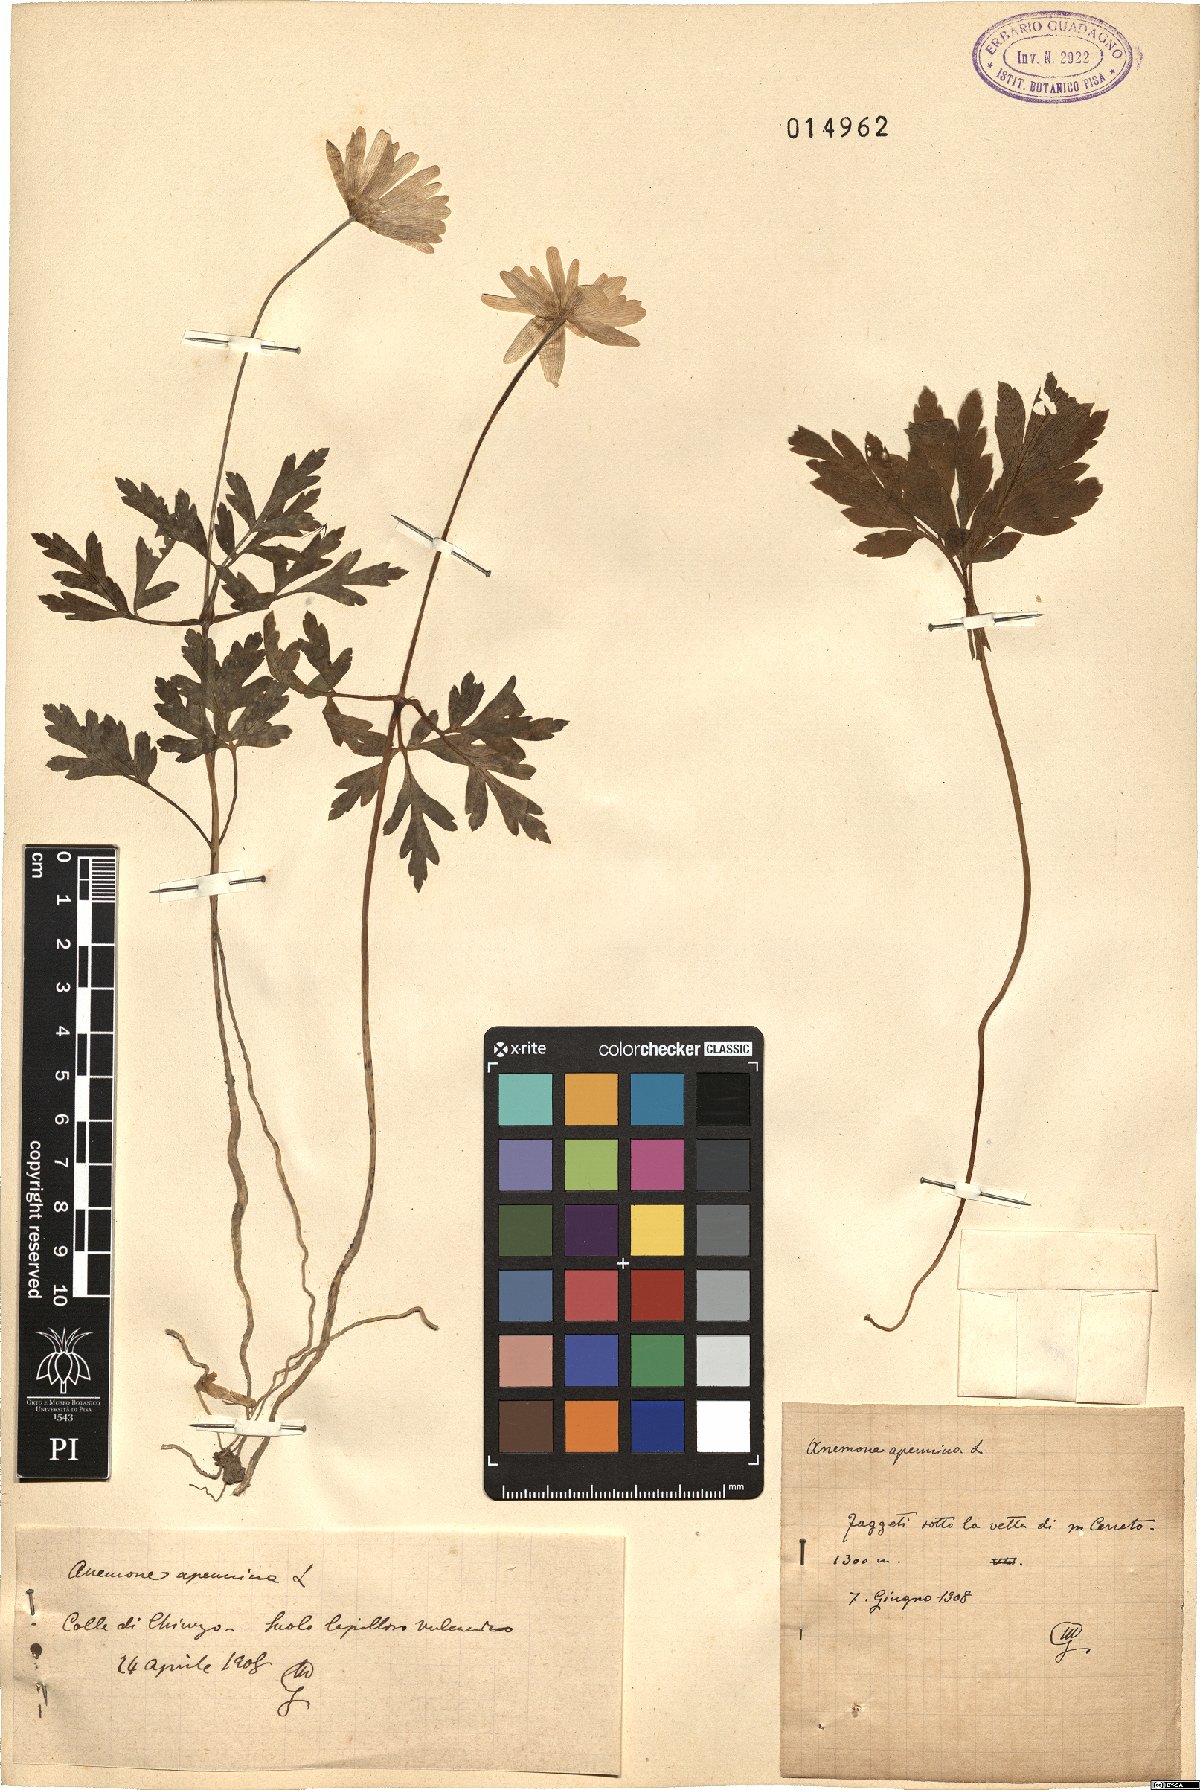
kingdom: Plantae
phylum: Tracheophyta
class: Magnoliopsida
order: Ranunculales
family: Ranunculaceae
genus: Anemone
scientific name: Anemone apennina
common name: Blue anemone
